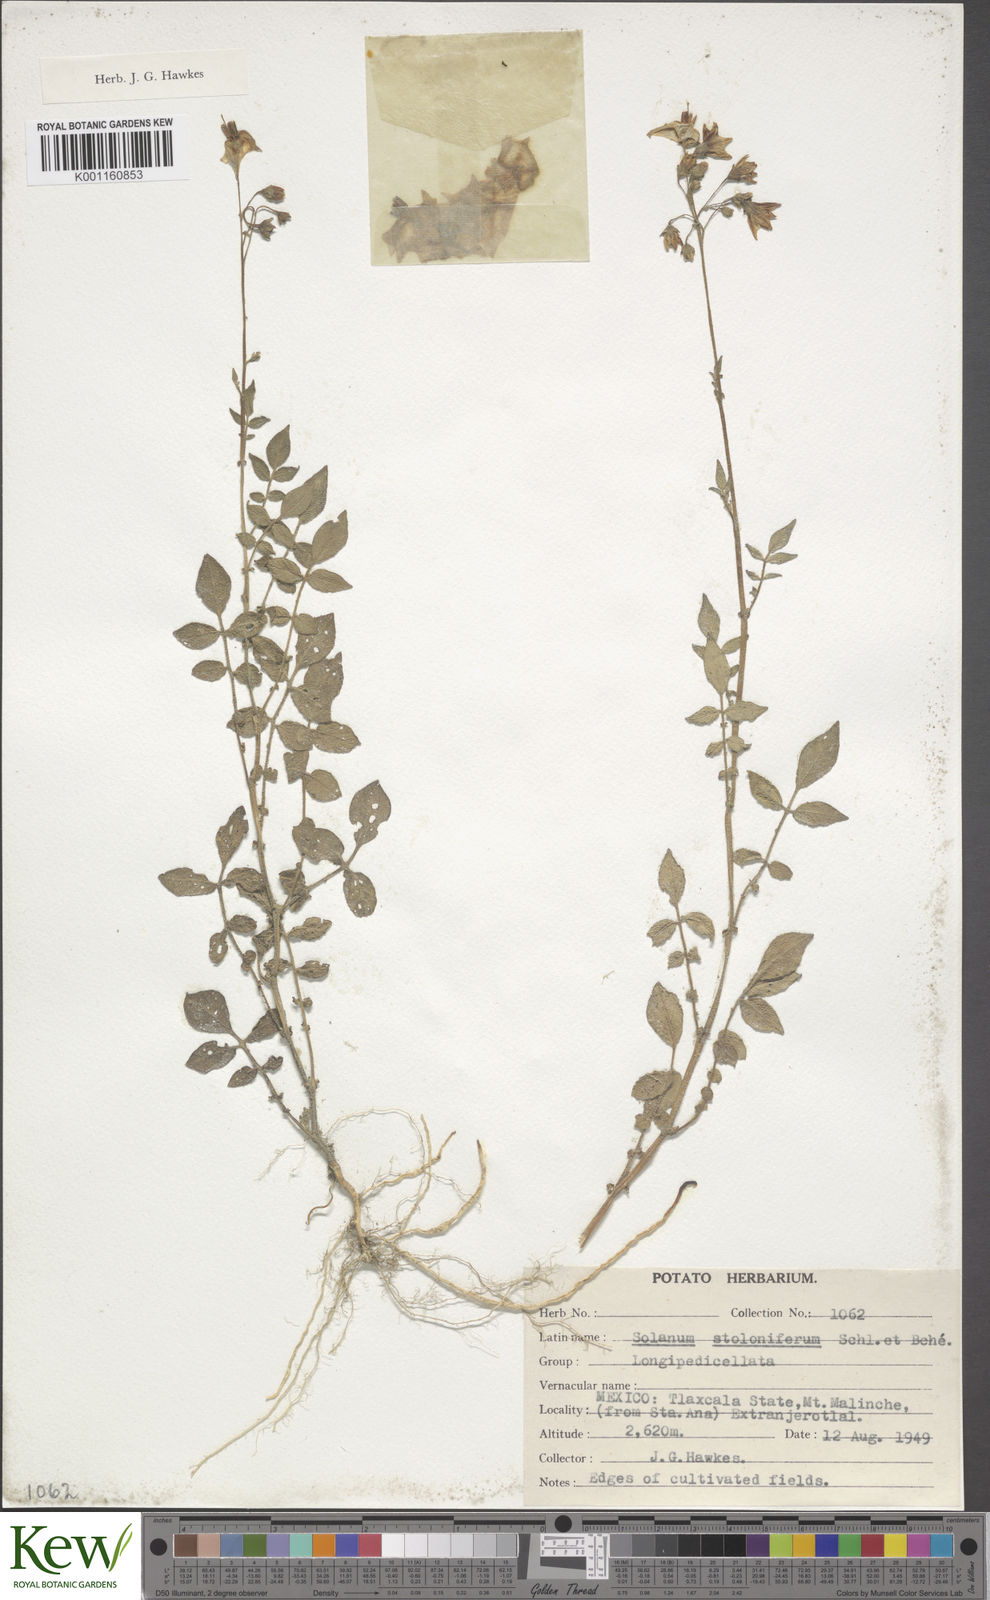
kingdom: Plantae
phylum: Tracheophyta
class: Magnoliopsida
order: Solanales
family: Solanaceae
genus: Solanum
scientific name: Solanum stoloniferum
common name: Fendler's nighshade
